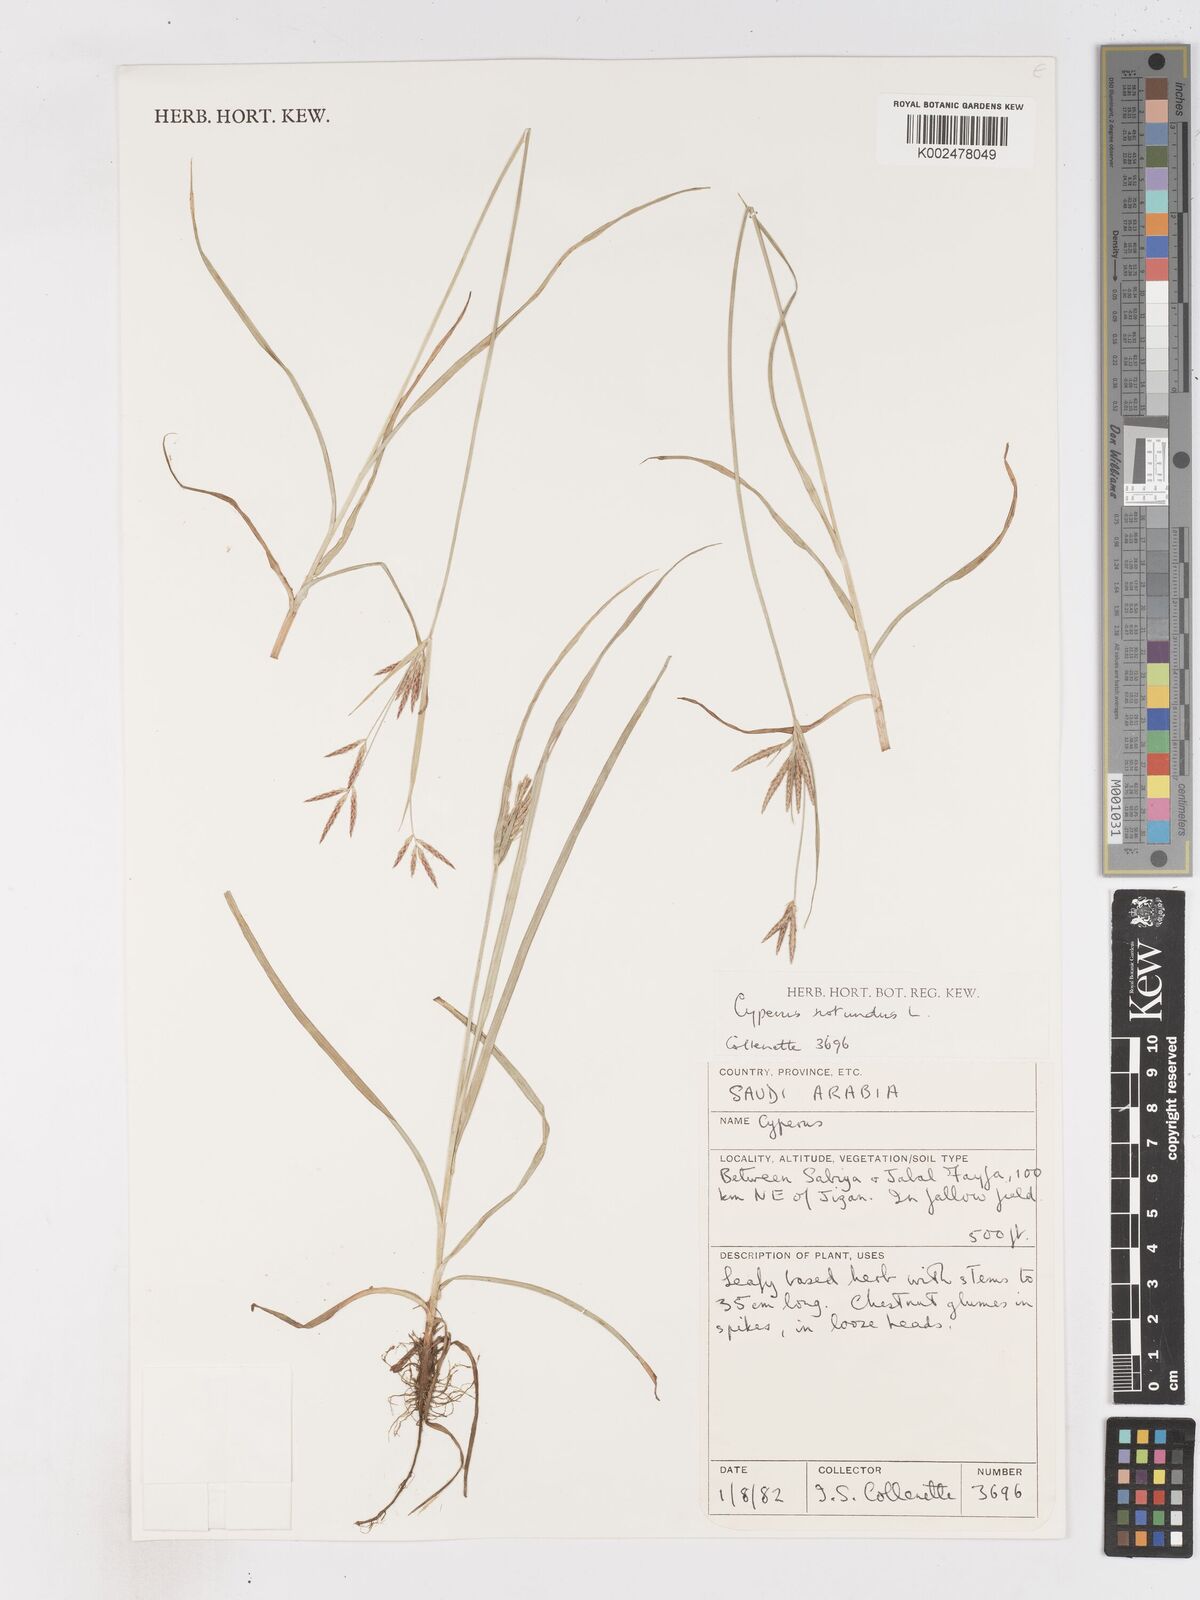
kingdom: Plantae
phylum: Tracheophyta
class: Liliopsida
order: Poales
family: Cyperaceae
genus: Cyperus
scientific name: Cyperus rotundus
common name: Nutgrass
